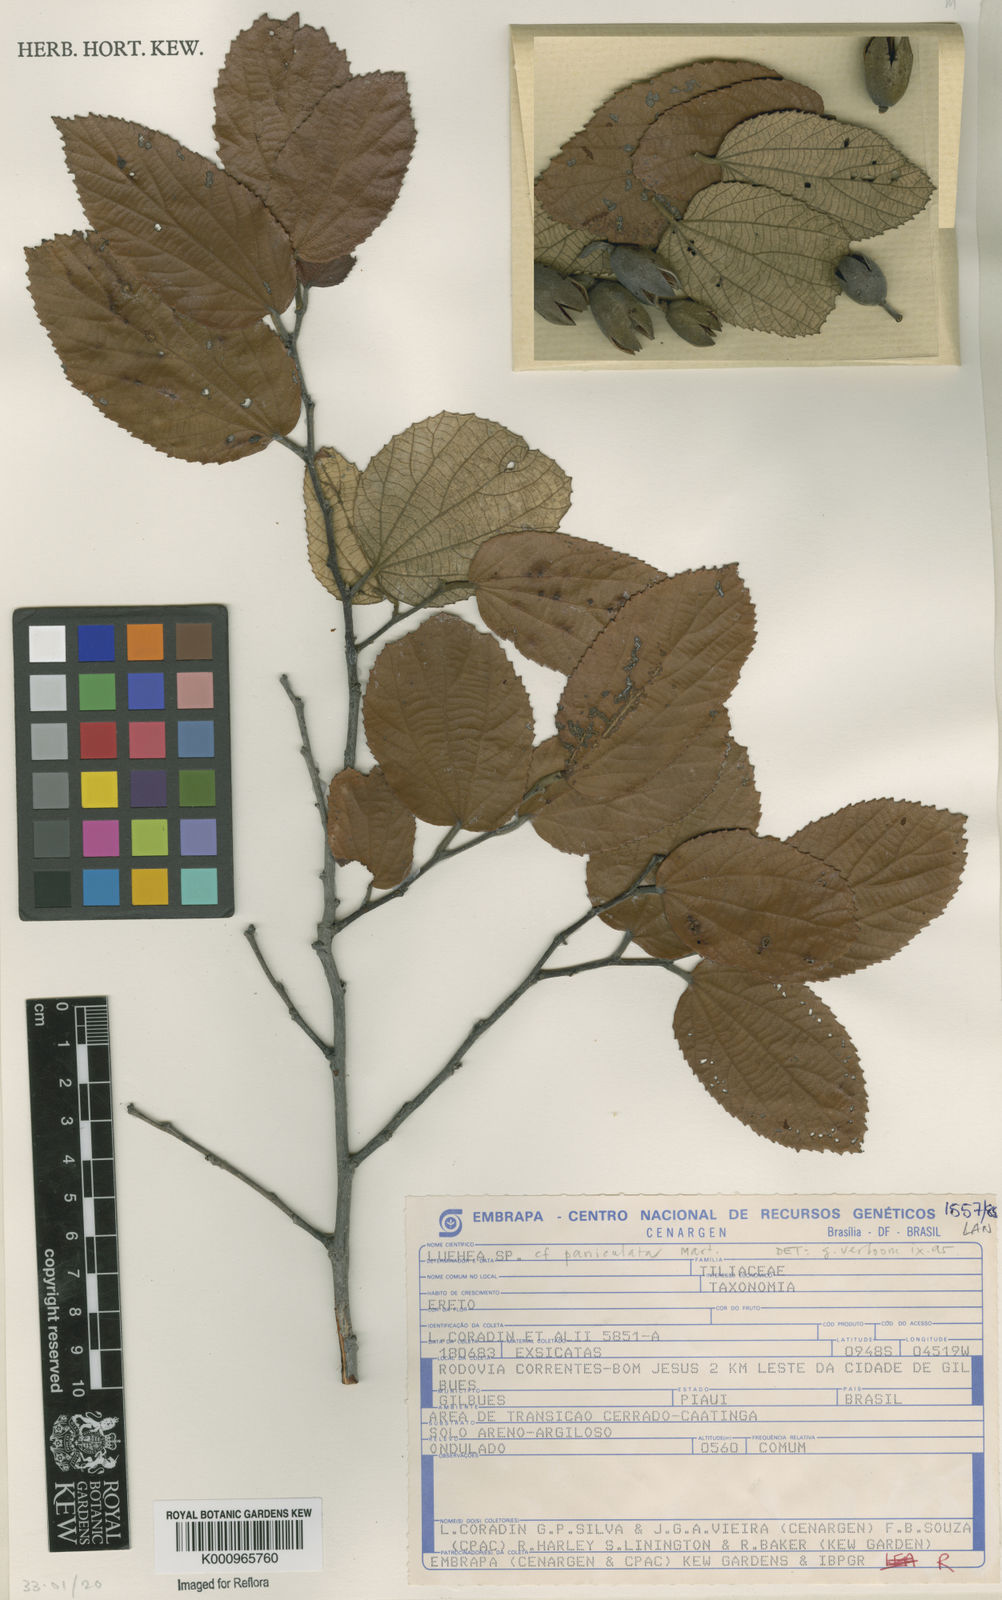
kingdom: Plantae
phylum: Tracheophyta
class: Magnoliopsida
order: Malvales
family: Malvaceae
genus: Luehea
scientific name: Luehea paniculata
